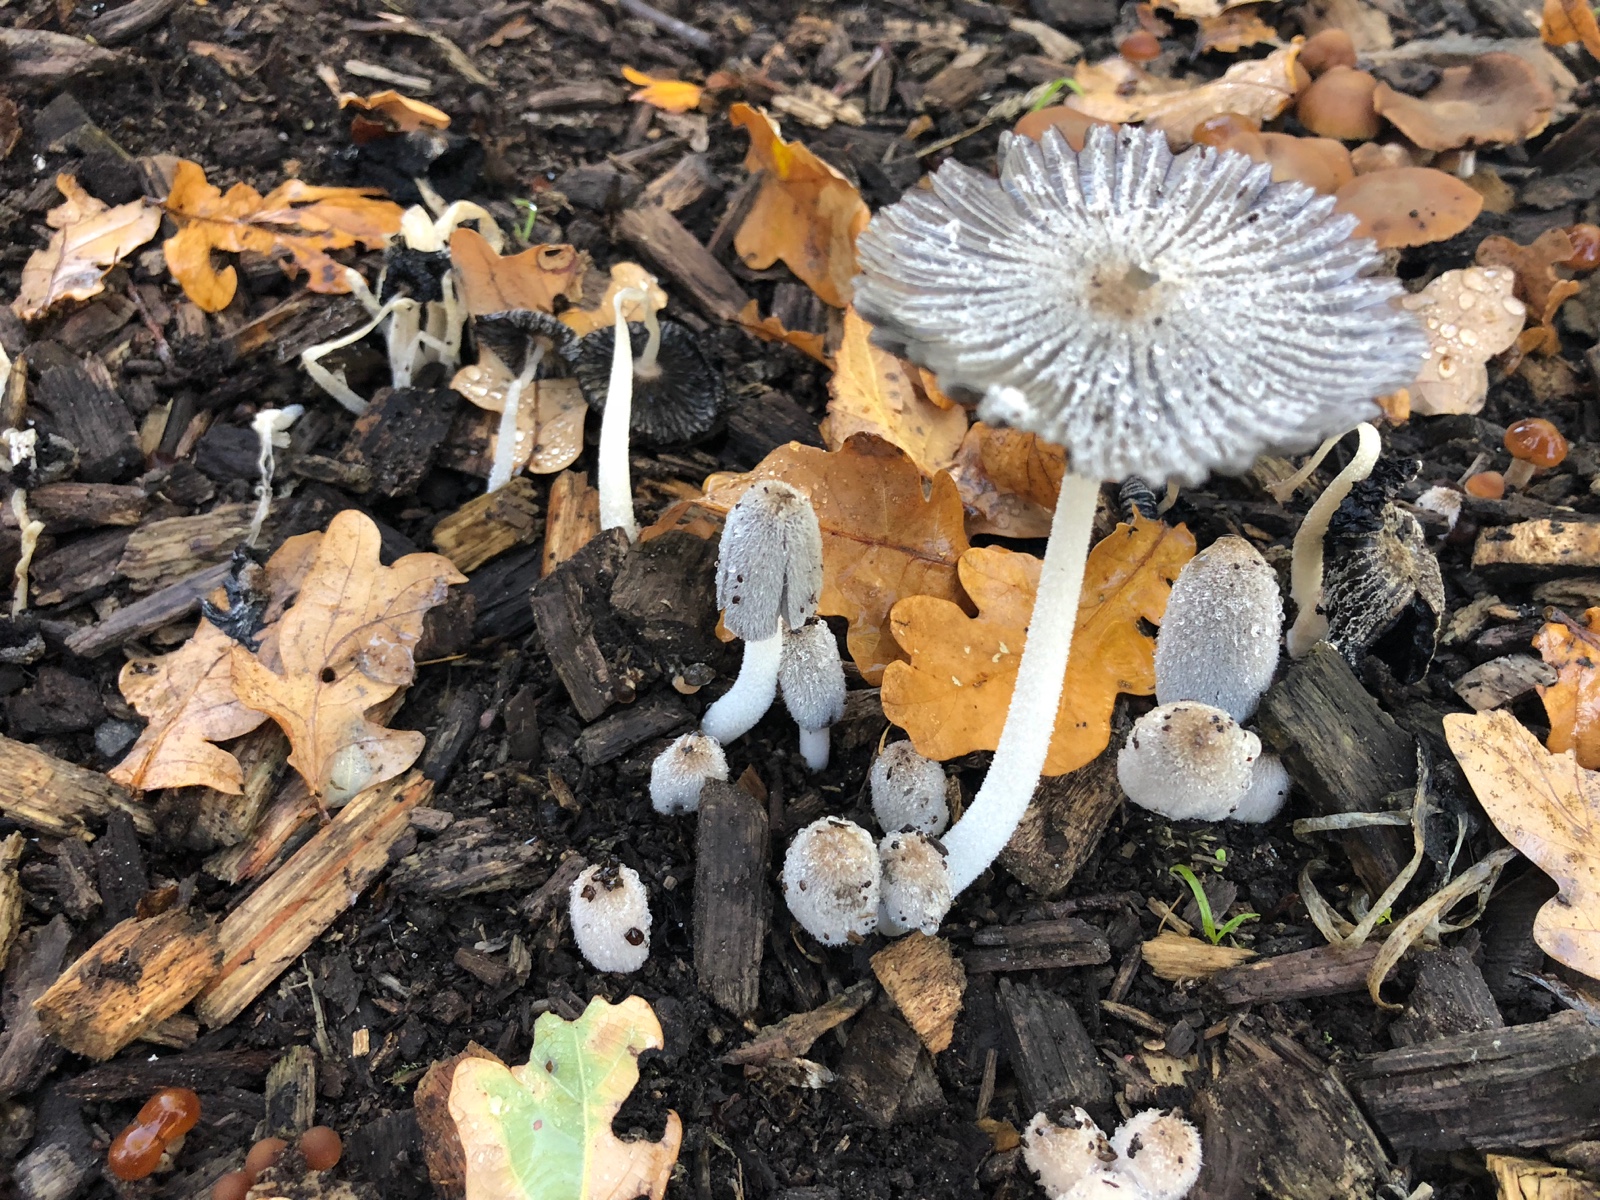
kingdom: Fungi
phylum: Basidiomycota
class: Agaricomycetes
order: Agaricales
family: Psathyrellaceae
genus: Coprinopsis
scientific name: Coprinopsis lagopus
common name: dunstokket blækhat
